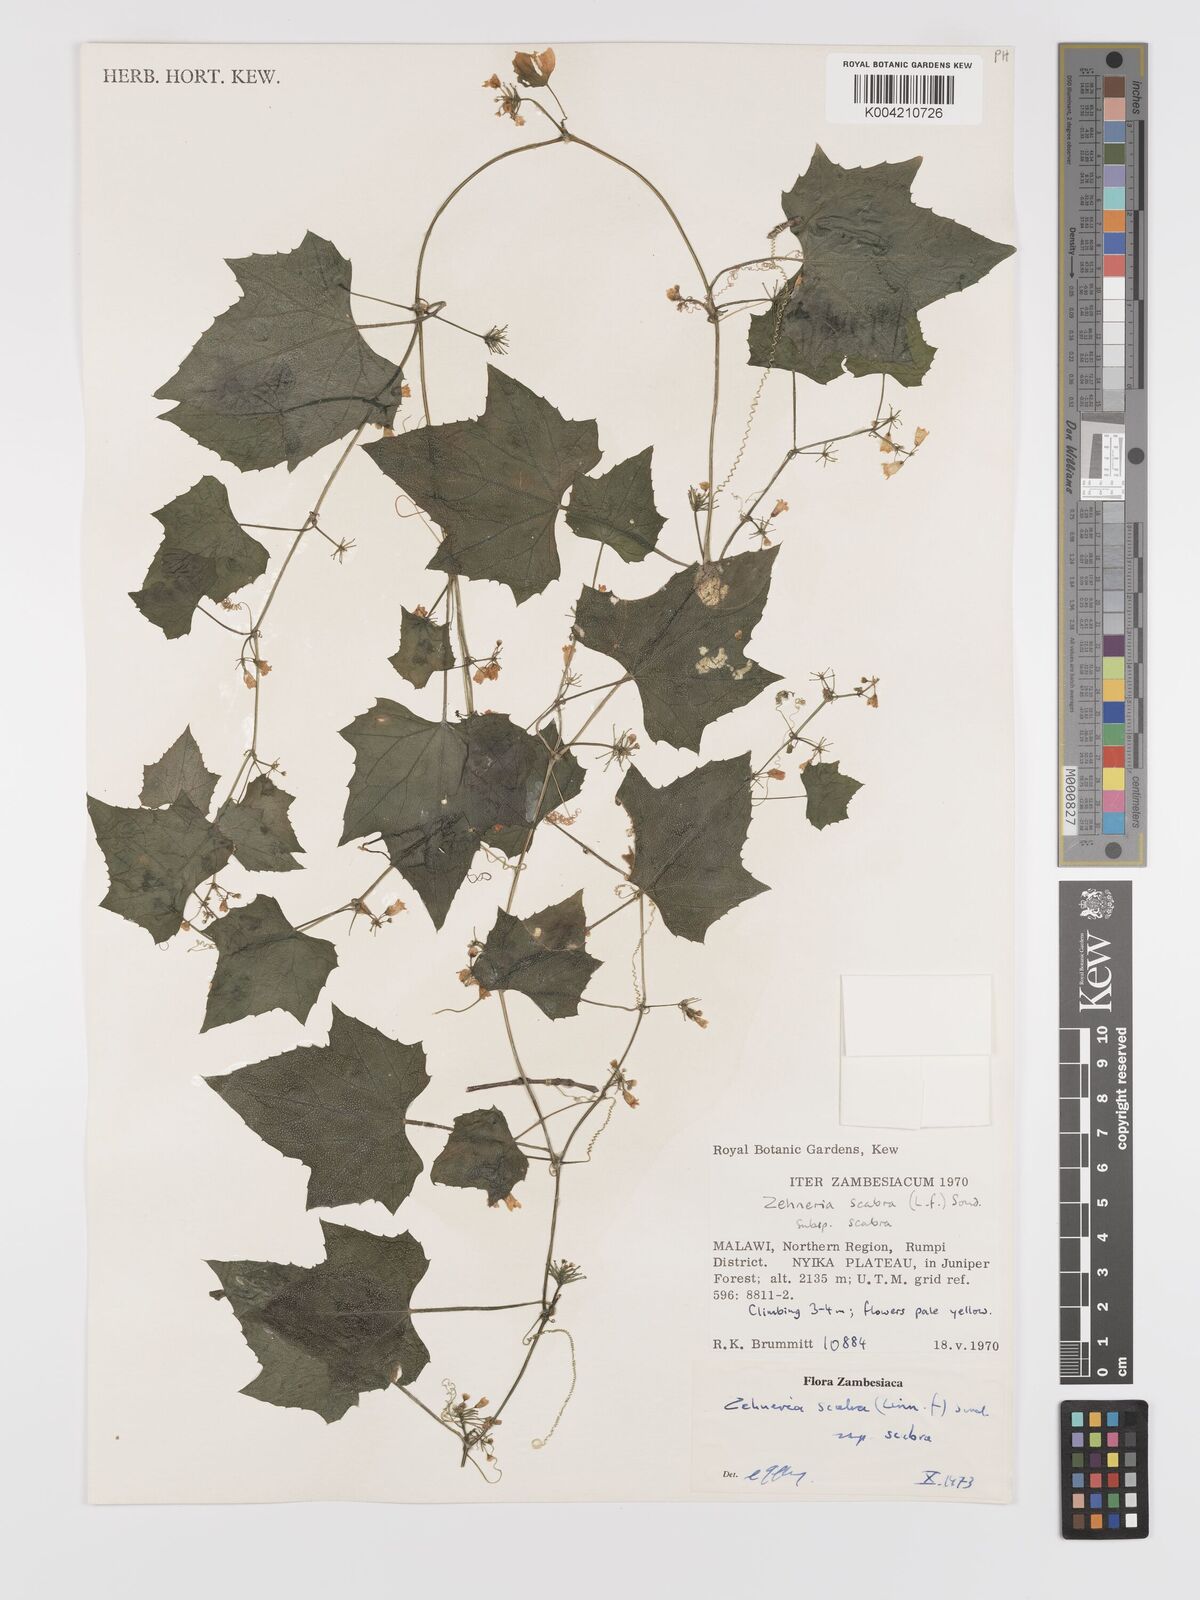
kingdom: Plantae
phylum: Tracheophyta
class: Magnoliopsida
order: Cucurbitales
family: Cucurbitaceae
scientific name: Cucurbitaceae
